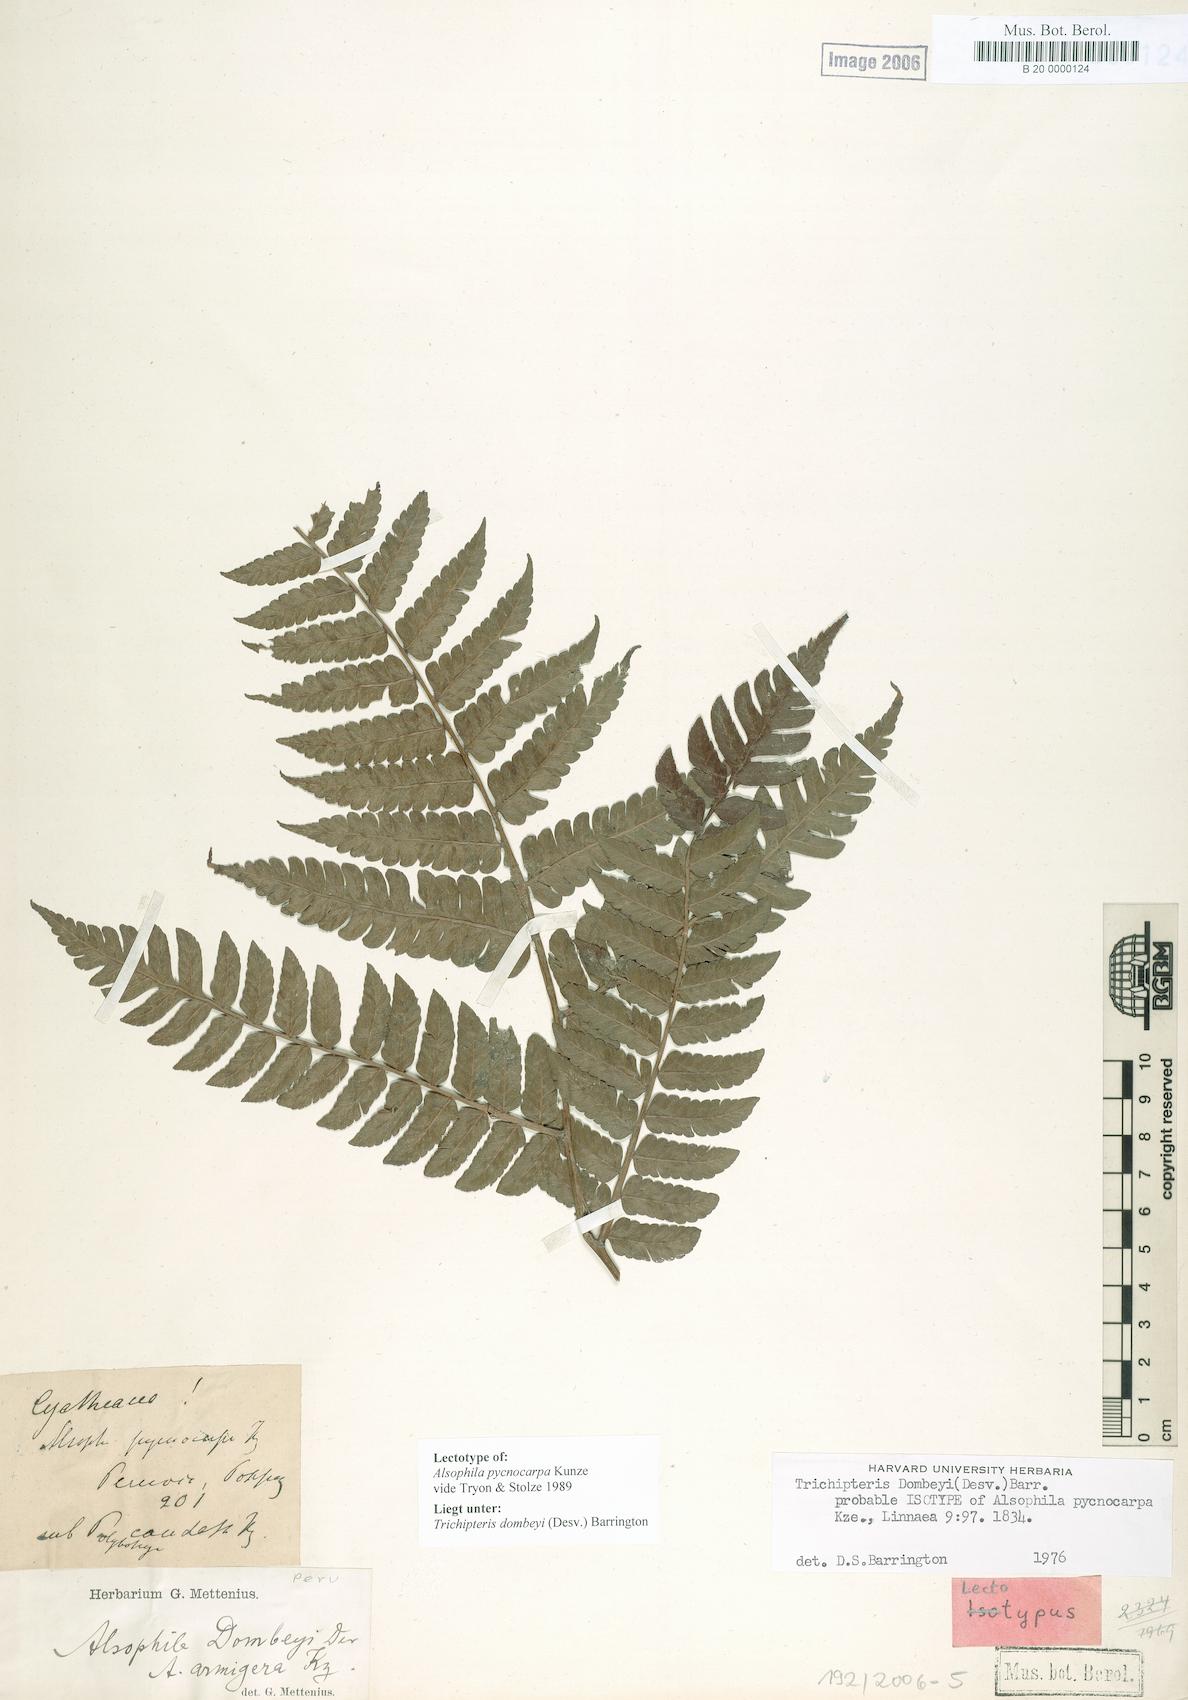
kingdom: Plantae
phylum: Tracheophyta
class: Polypodiopsida
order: Cyatheales
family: Cyatheaceae
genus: Cyathea
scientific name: Cyathea dombeyi
